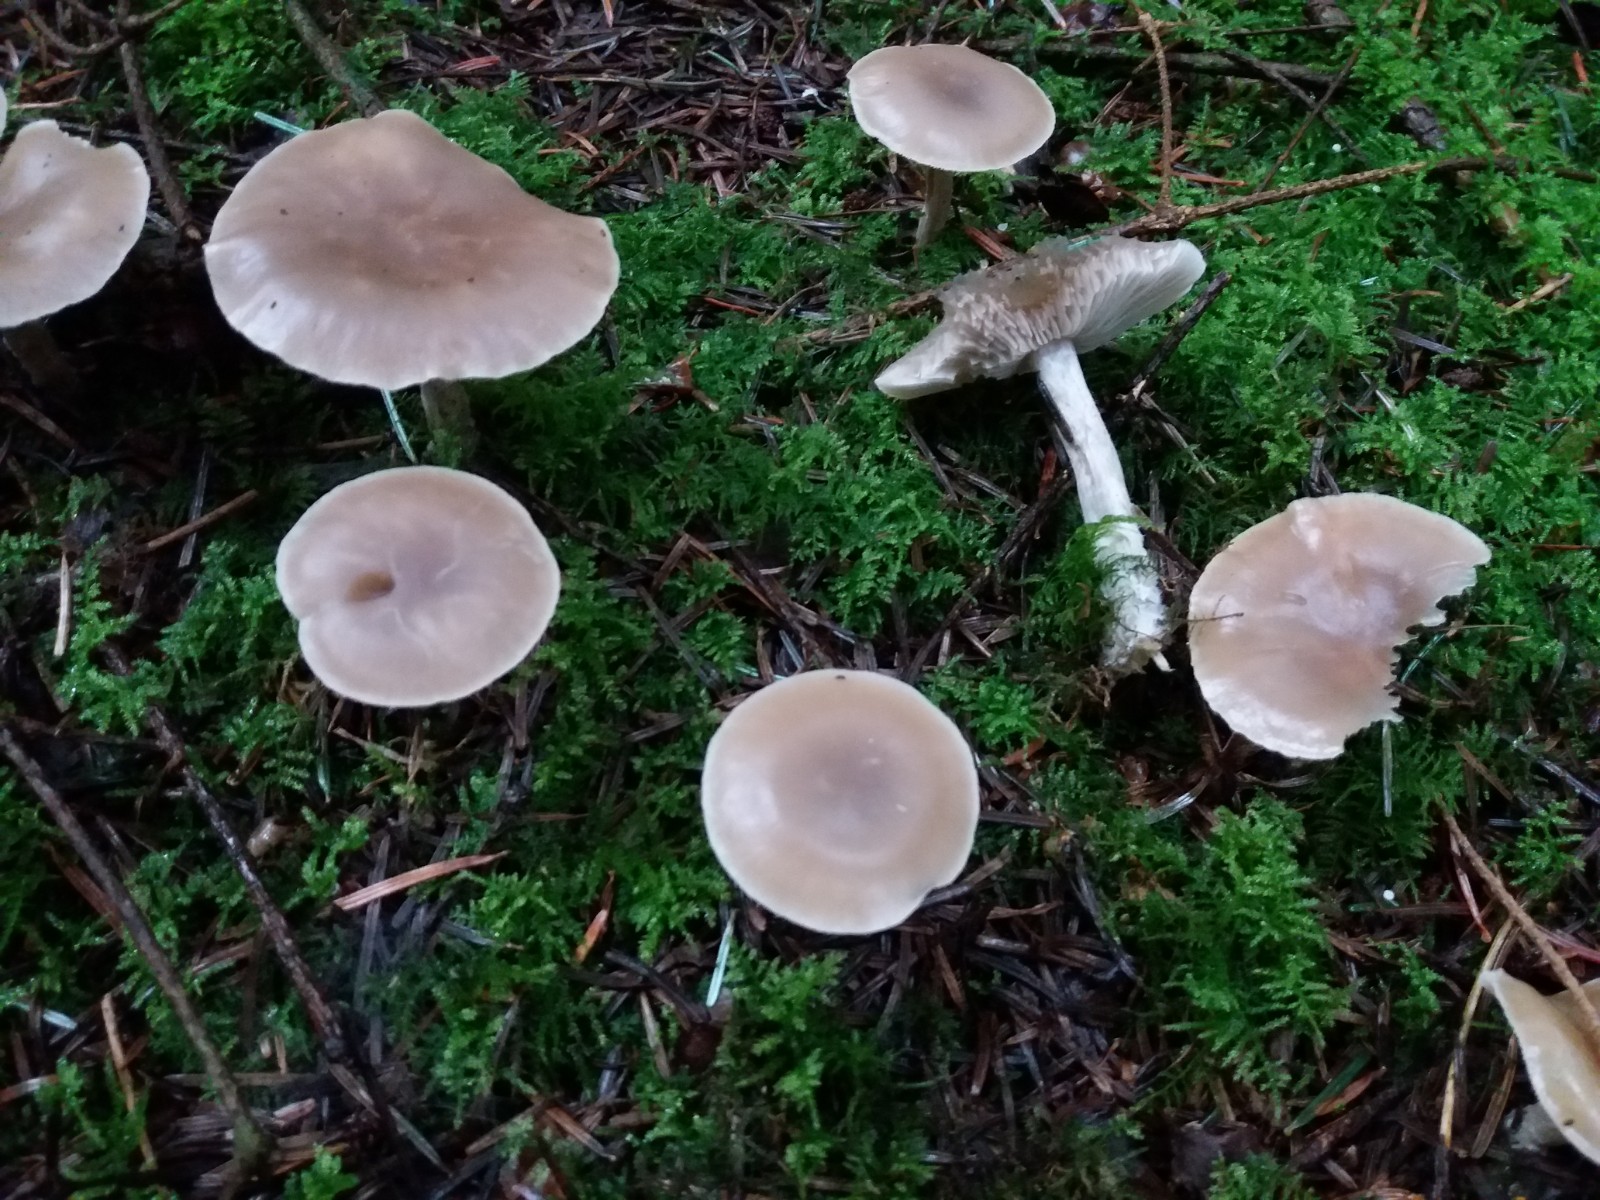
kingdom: Fungi
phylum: Basidiomycota
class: Agaricomycetes
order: Agaricales
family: Lyophyllaceae
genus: Lyophyllum
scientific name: Lyophyllum turcicum
